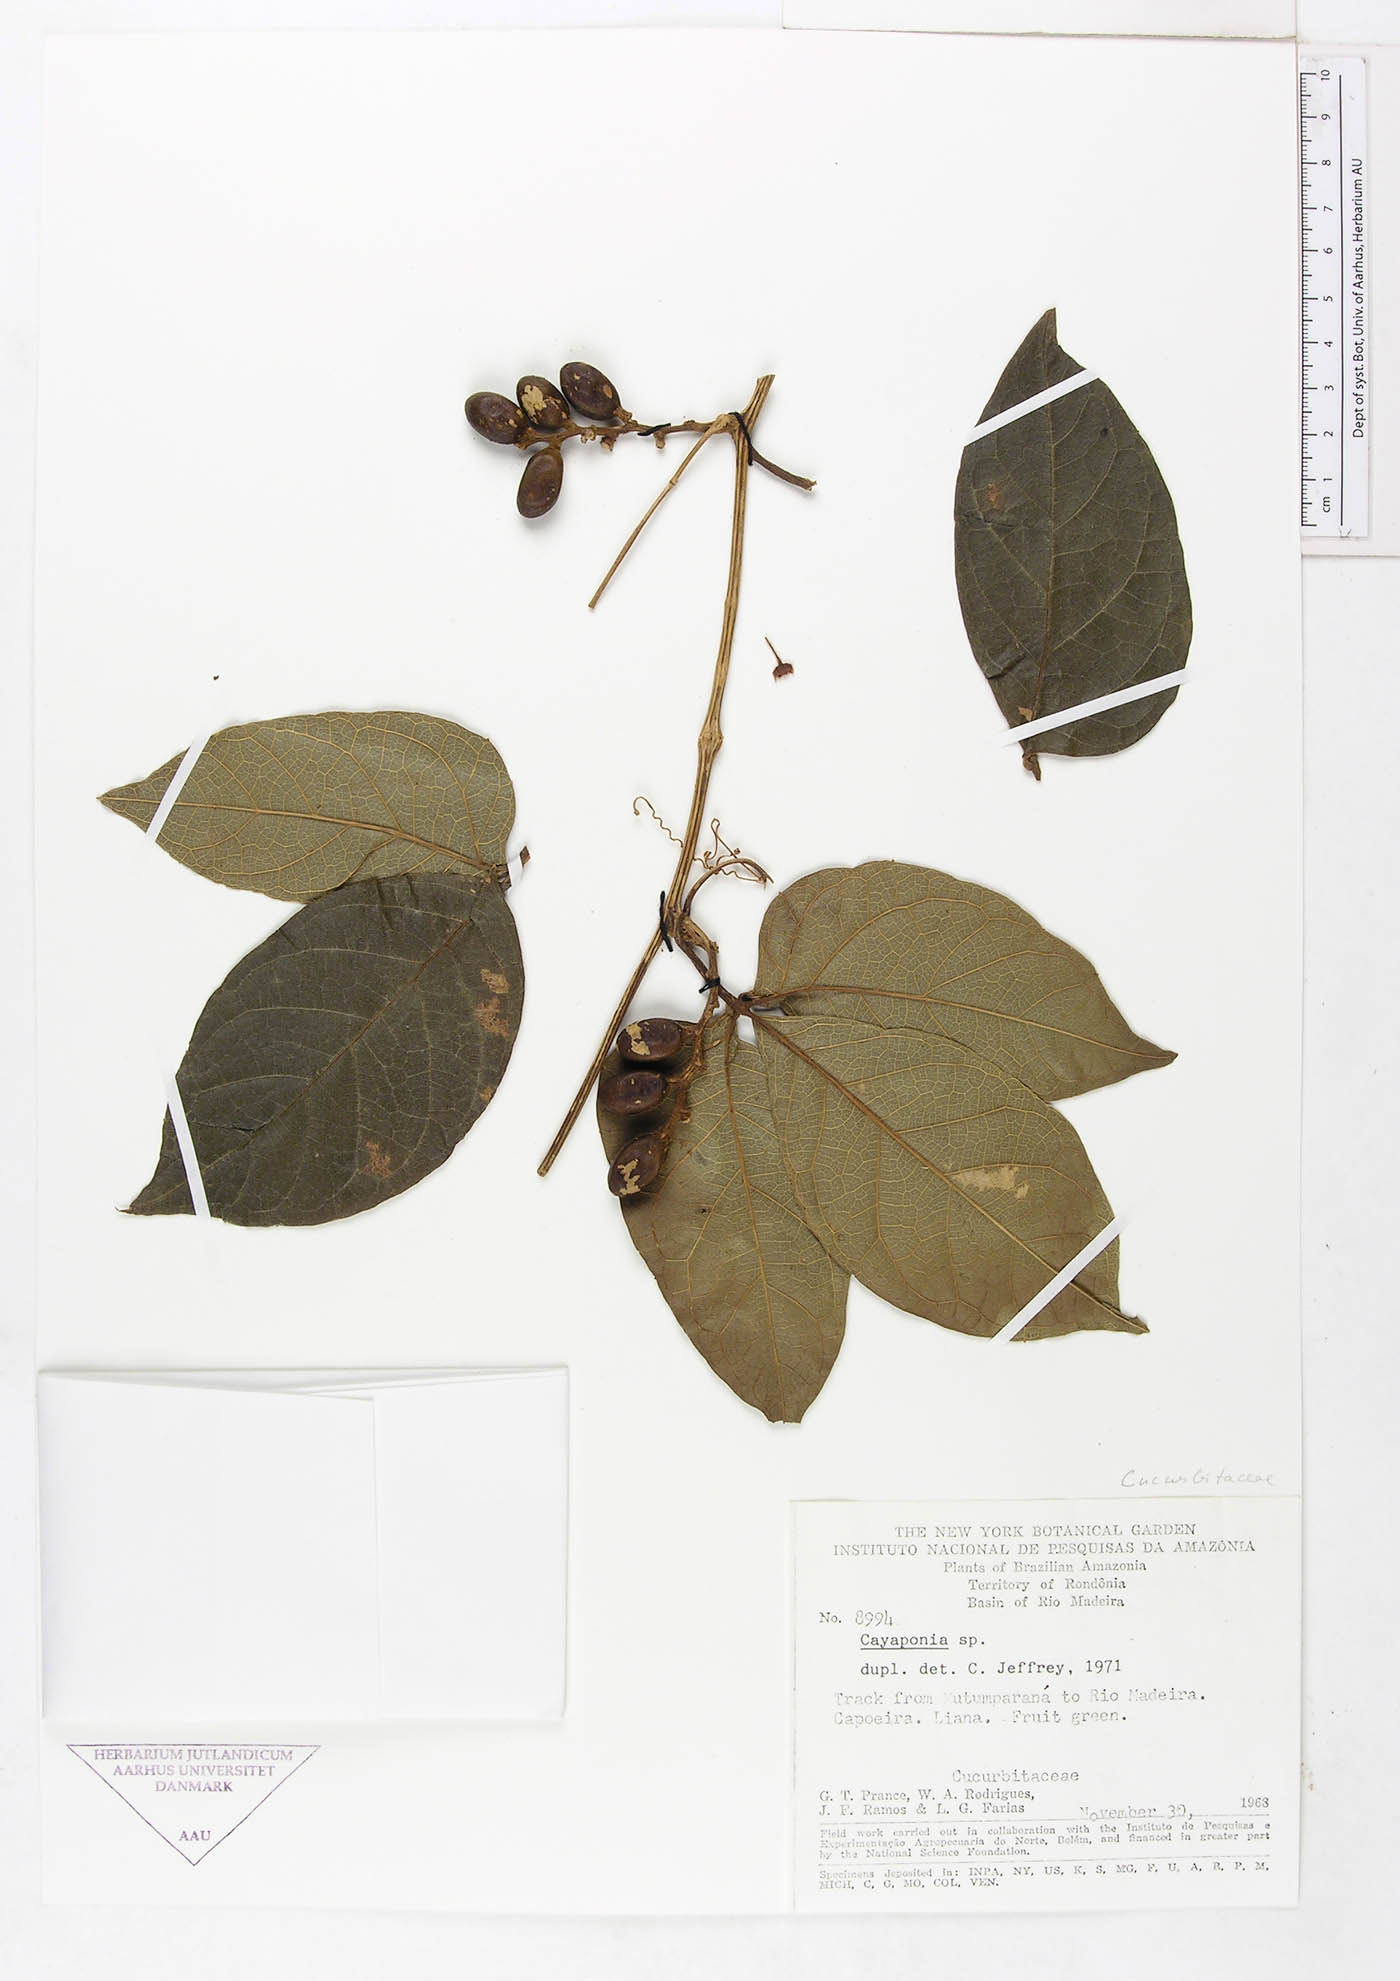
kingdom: Plantae
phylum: Tracheophyta
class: Magnoliopsida
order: Cucurbitales
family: Cucurbitaceae
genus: Cayaponia
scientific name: Cayaponia ferruginea
